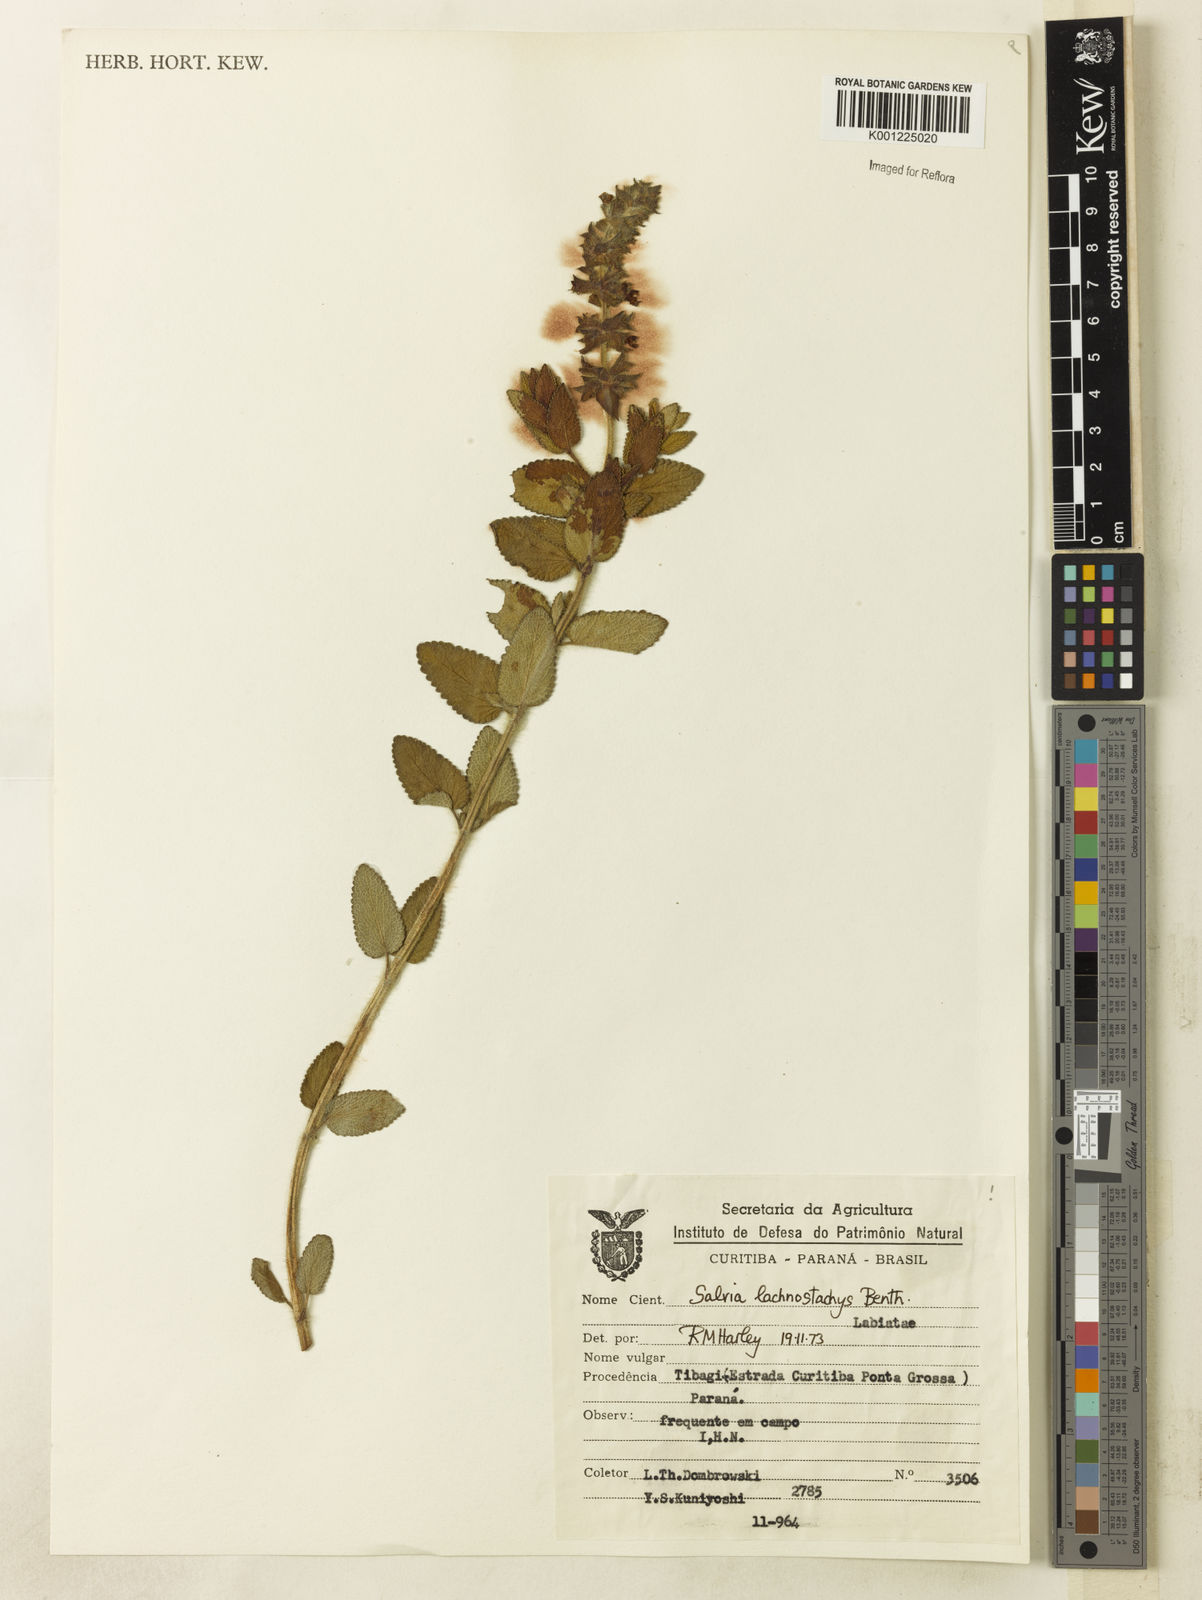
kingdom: Plantae
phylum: Tracheophyta
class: Magnoliopsida
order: Lamiales
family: Lamiaceae
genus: Salvia
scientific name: Salvia lachnostachys
